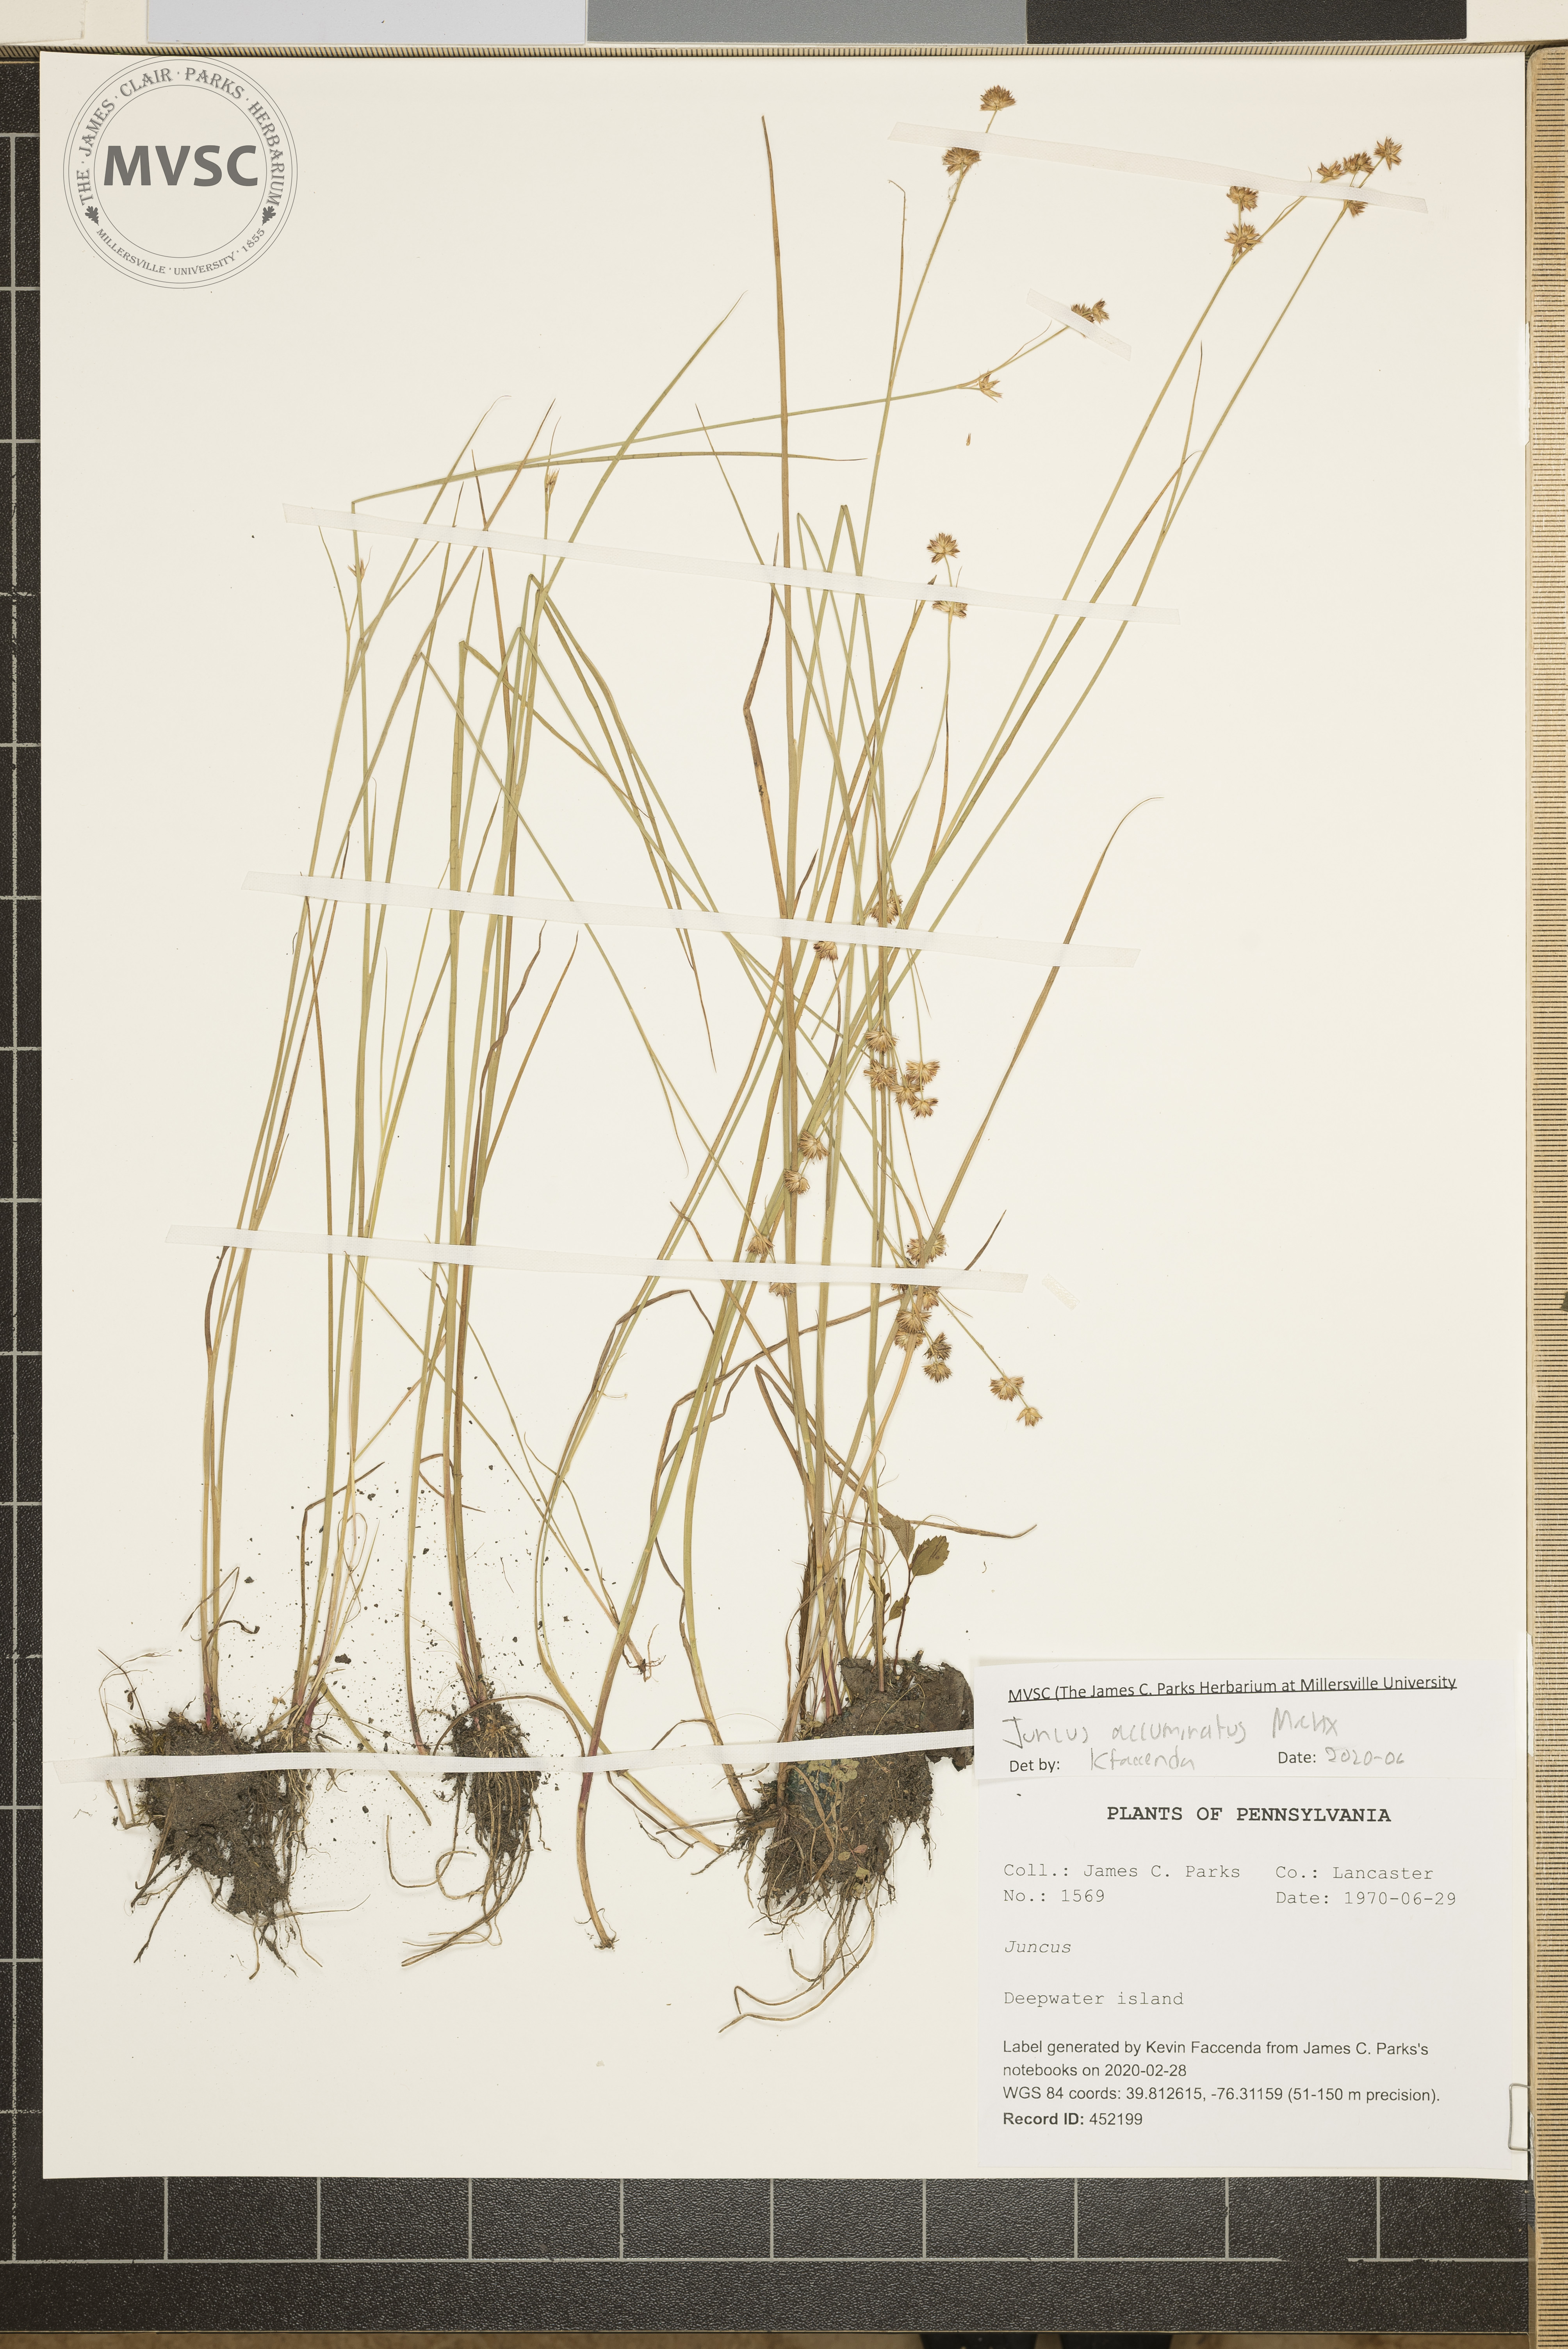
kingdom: Plantae
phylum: Tracheophyta
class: Liliopsida
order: Poales
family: Juncaceae
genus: Juncus
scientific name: Juncus acuminatus
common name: Knotty-leaved rush
